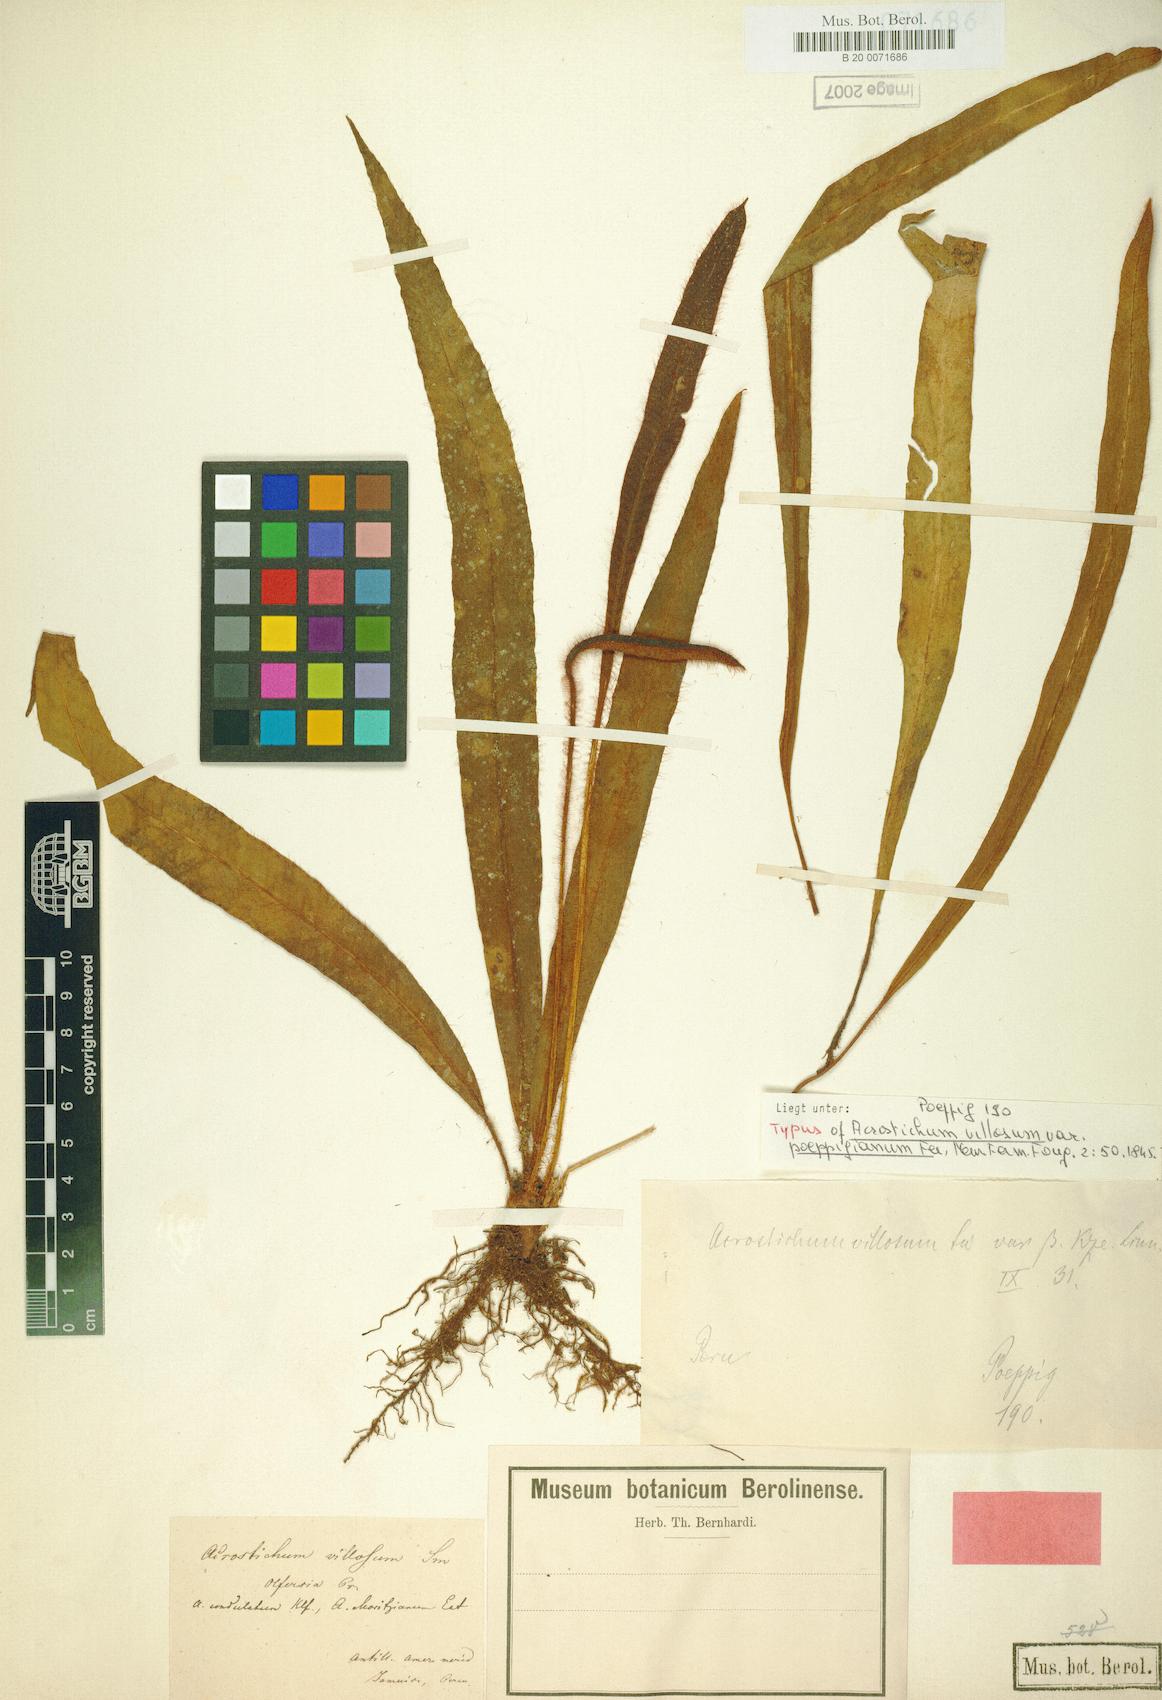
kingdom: Plantae
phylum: Tracheophyta
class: Polypodiopsida
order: Polypodiales
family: Dryopteridaceae
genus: Elaphoglossum
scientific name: Elaphoglossum poeppigianum
